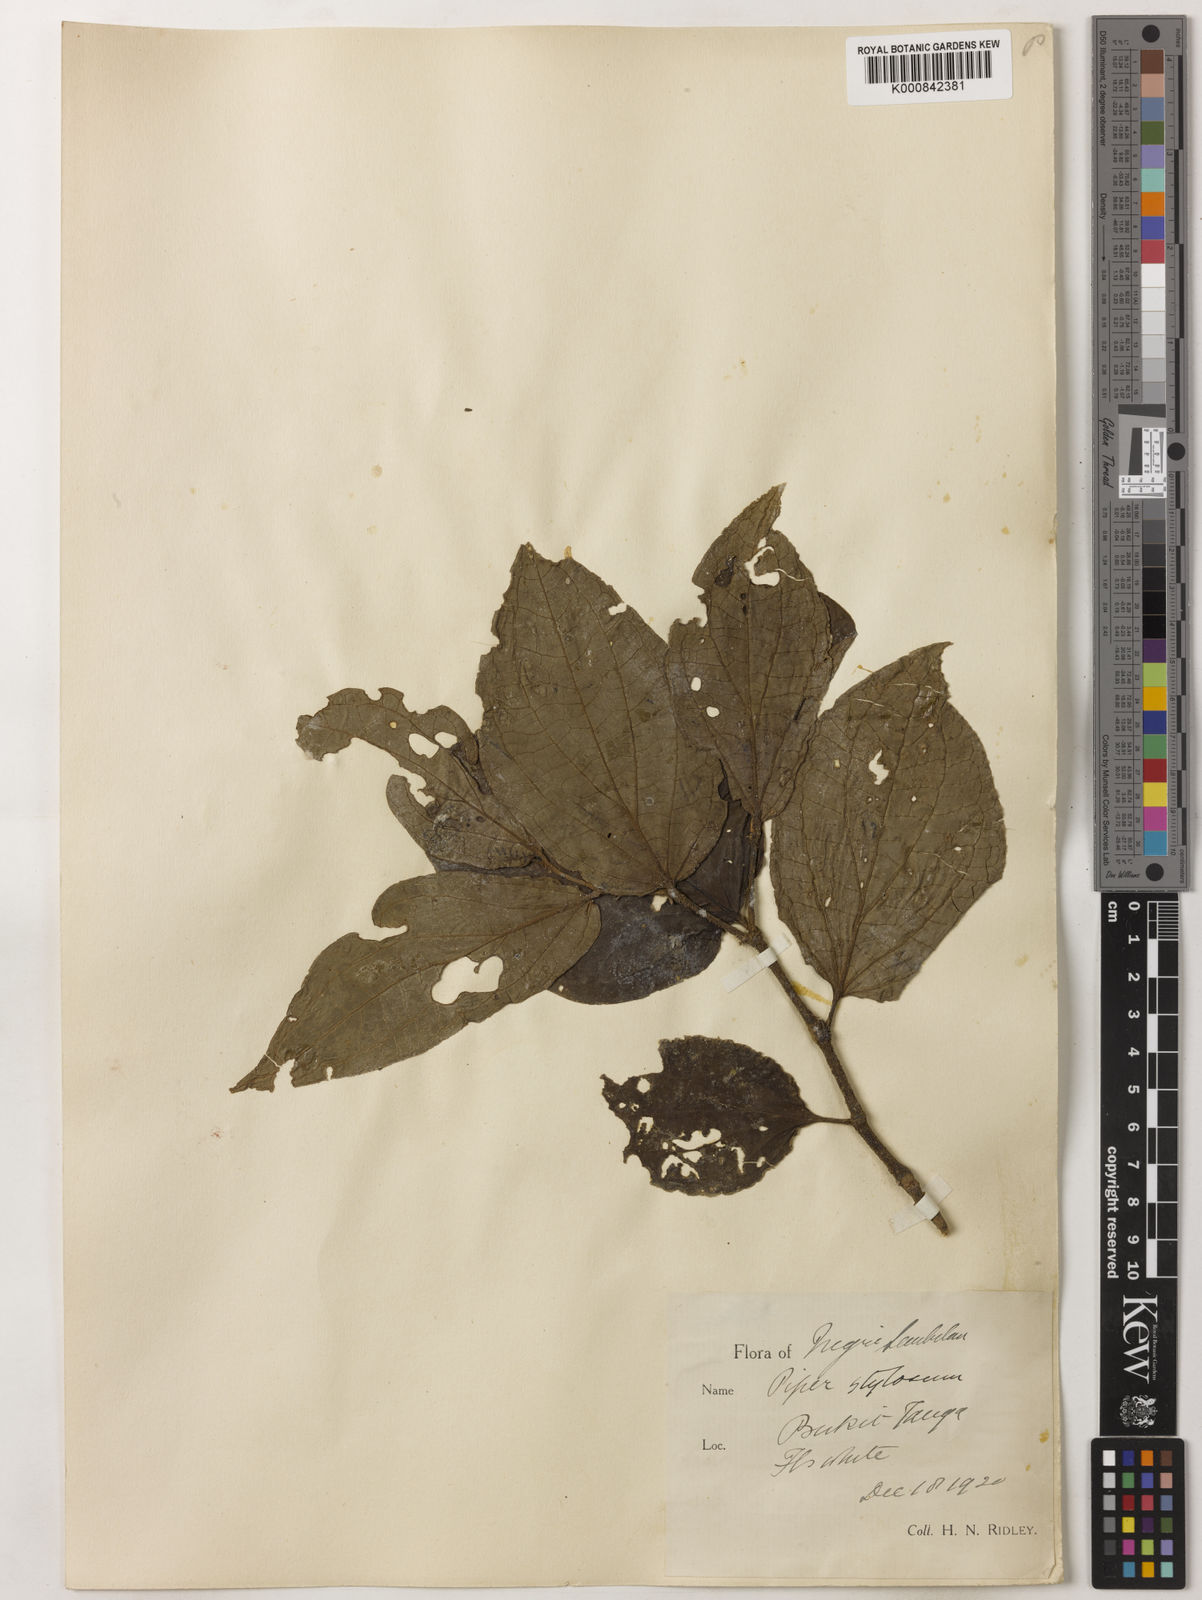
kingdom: Plantae
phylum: Tracheophyta
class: Magnoliopsida
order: Piperales
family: Piperaceae
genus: Piper
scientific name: Piper rostratum
